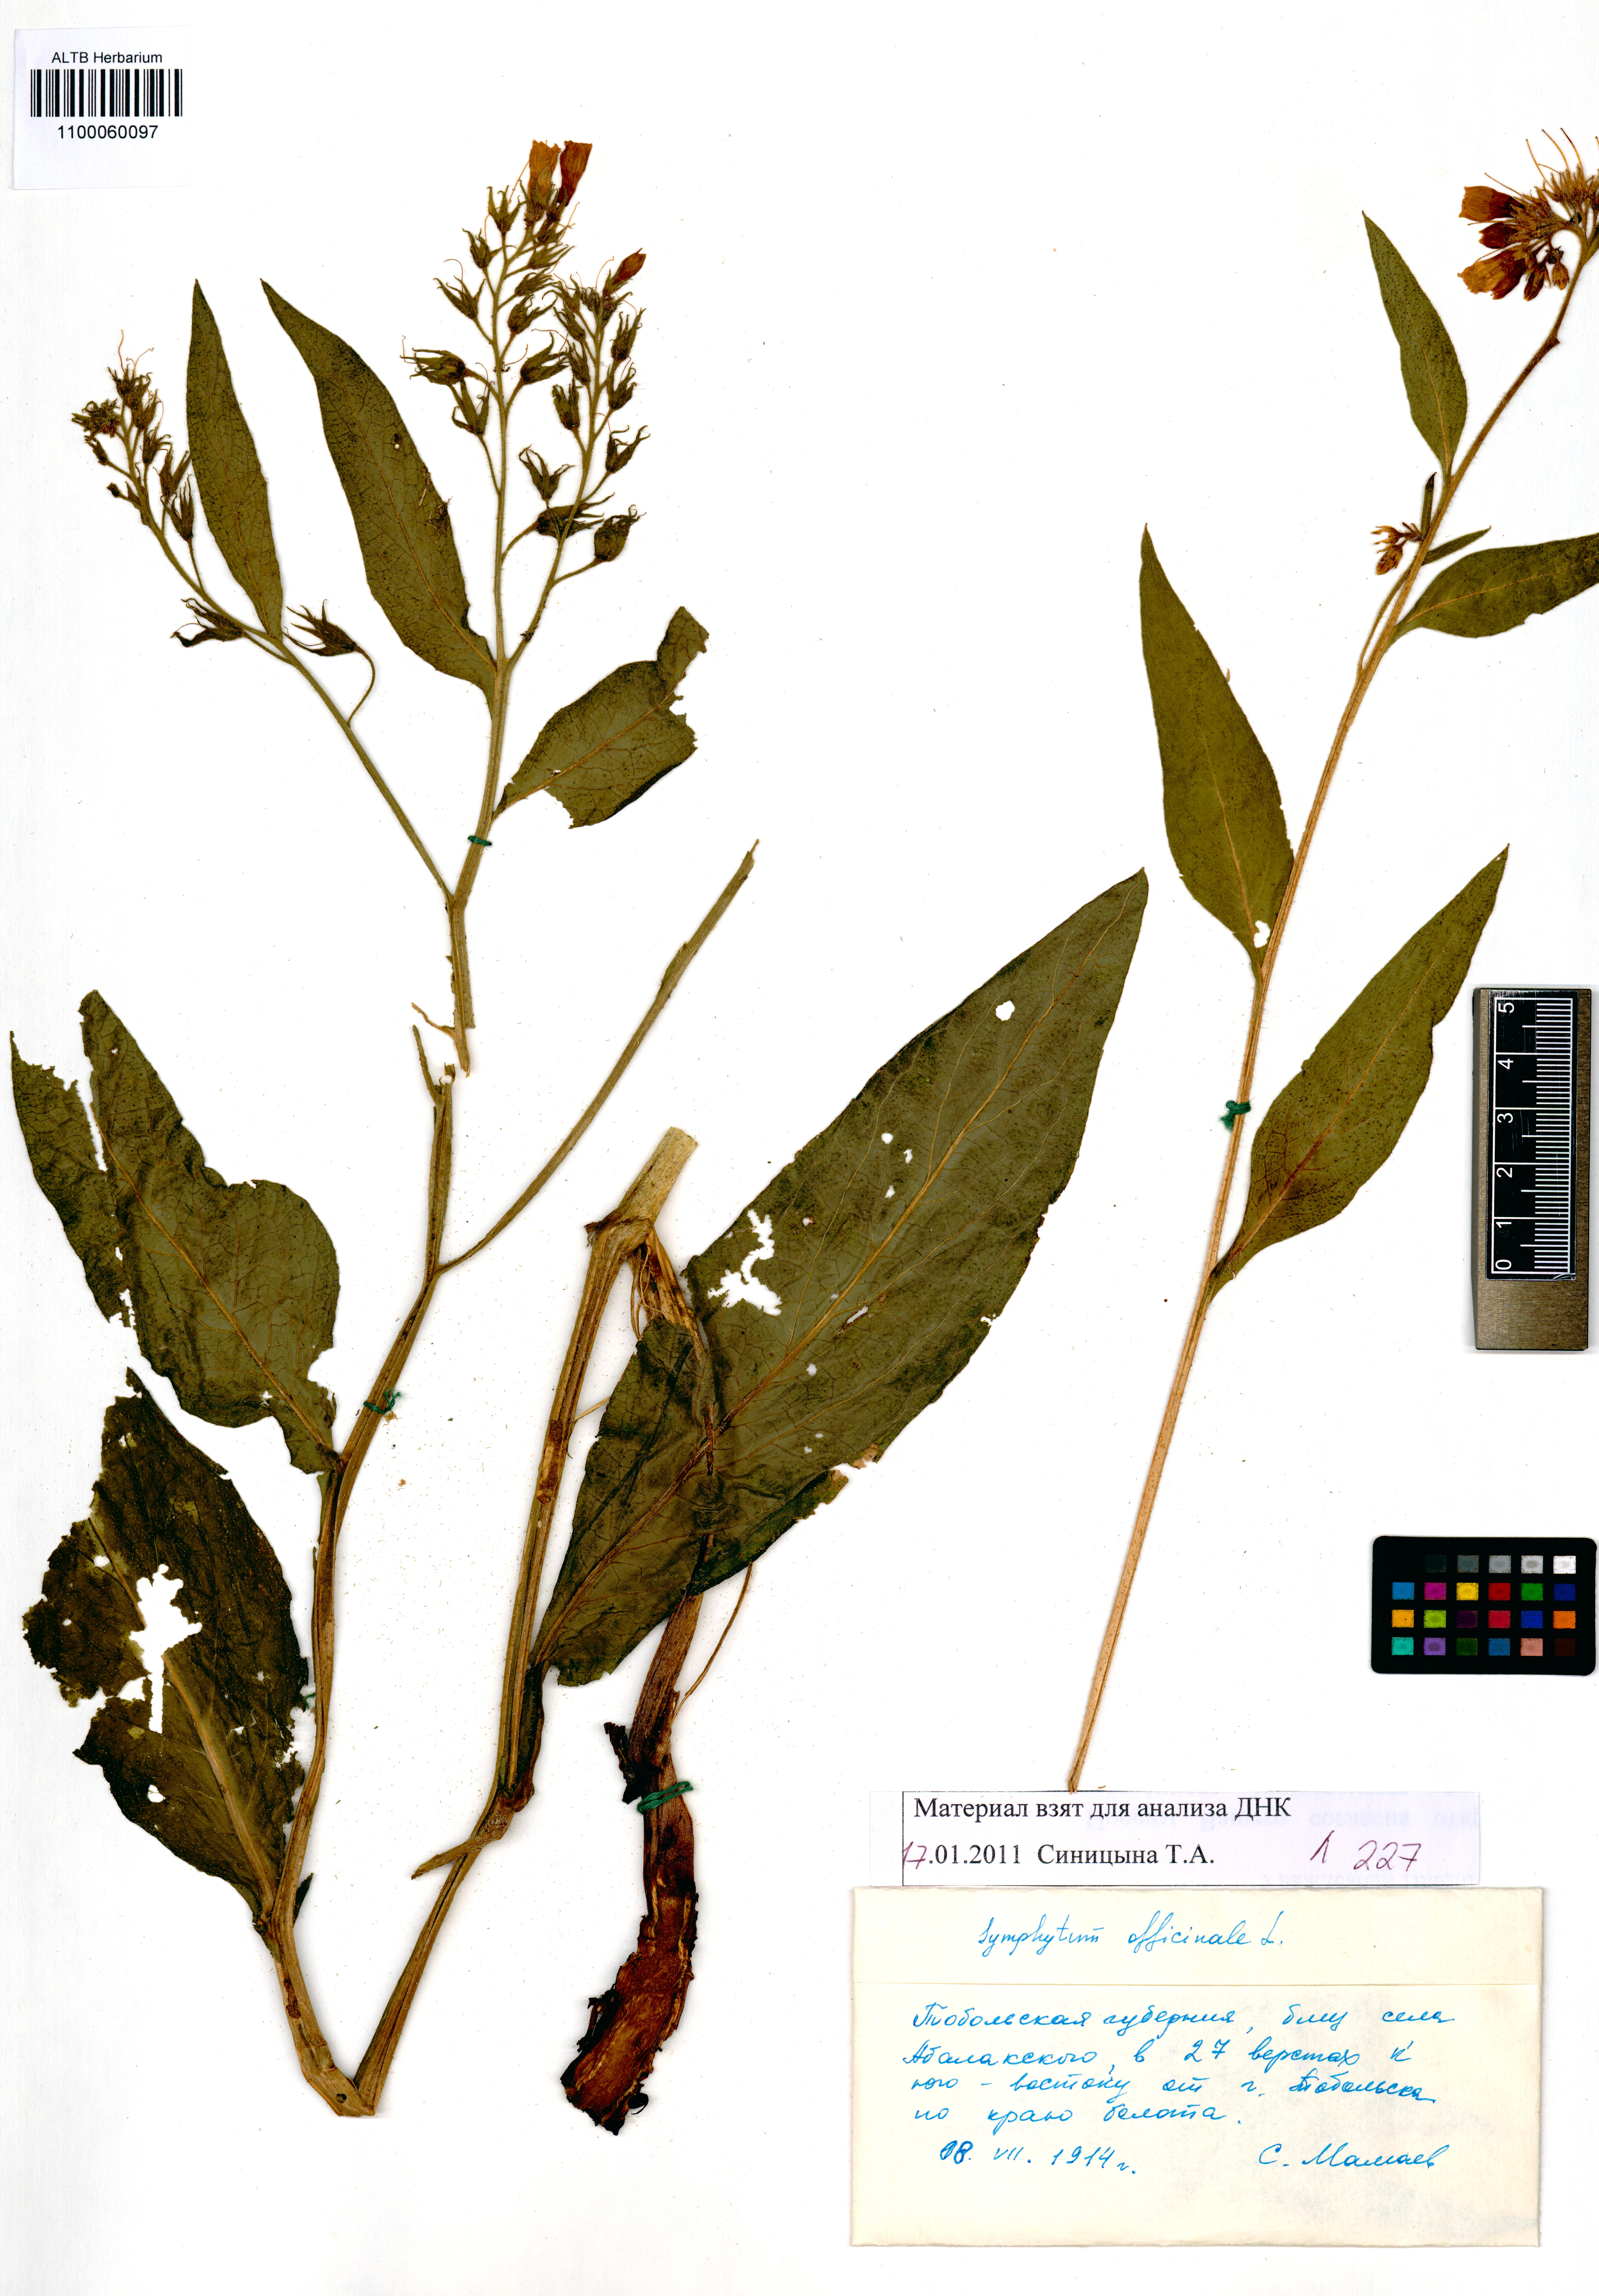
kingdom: Plantae
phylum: Tracheophyta
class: Magnoliopsida
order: Boraginales
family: Boraginaceae
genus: Symphytum
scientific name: Symphytum officinale
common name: Common comfrey
